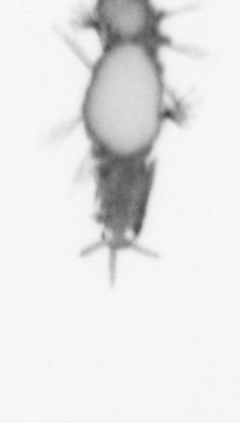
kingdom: Animalia
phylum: Annelida
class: Polychaeta
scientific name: Polychaeta
